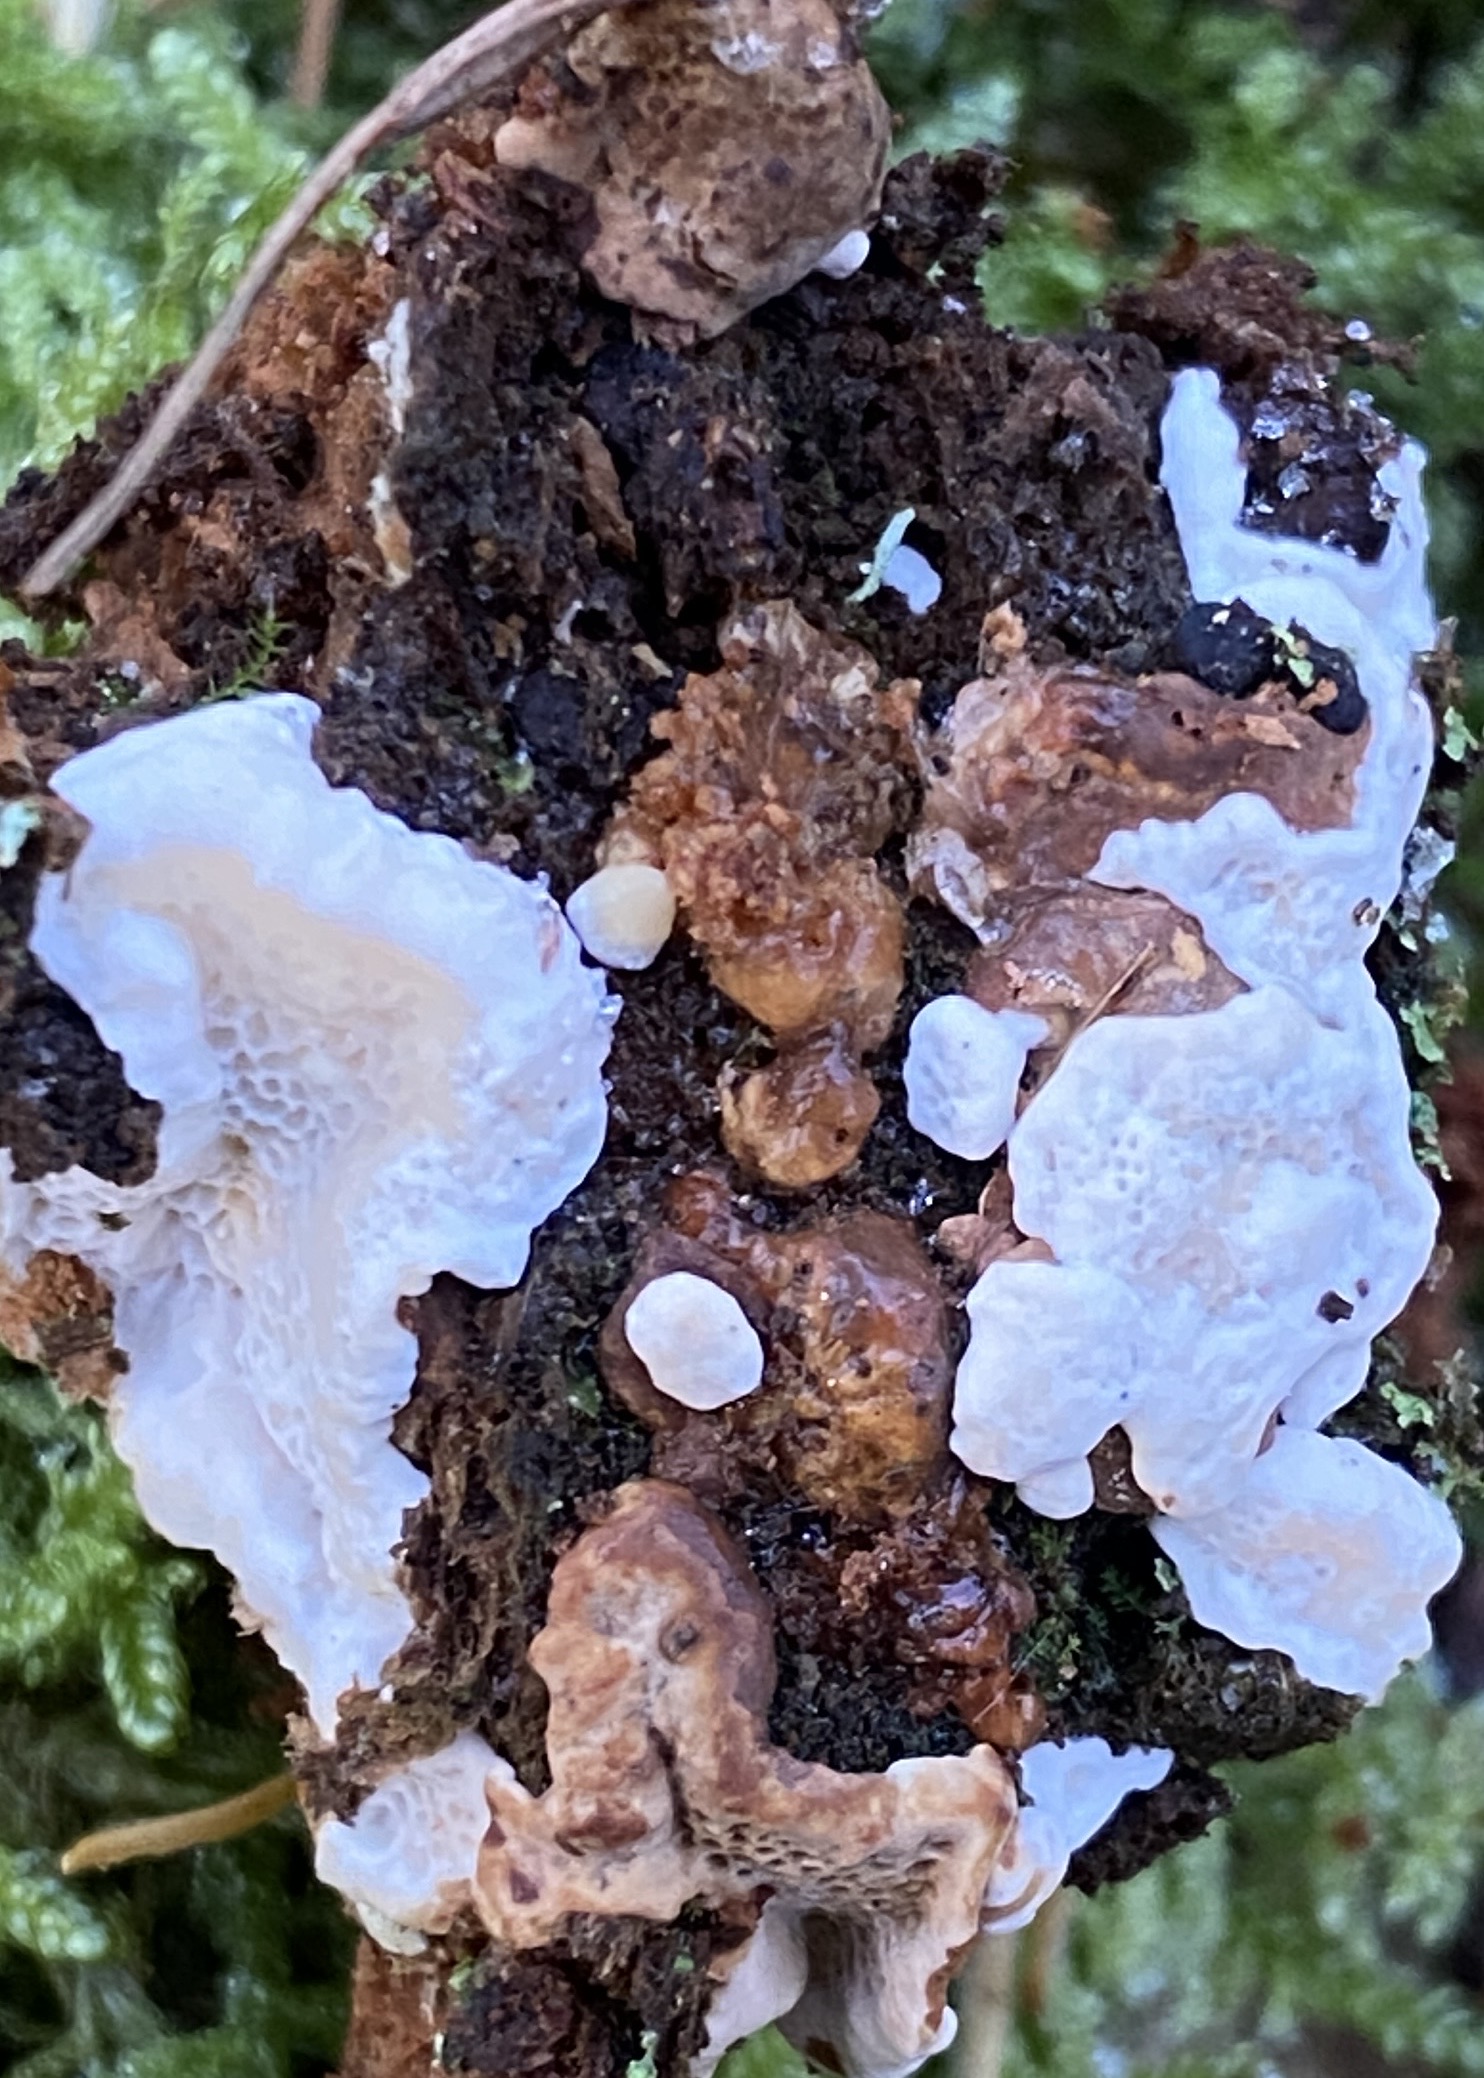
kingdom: Fungi
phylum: Basidiomycota
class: Agaricomycetes
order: Polyporales
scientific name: Polyporales
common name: poresvampordenen
